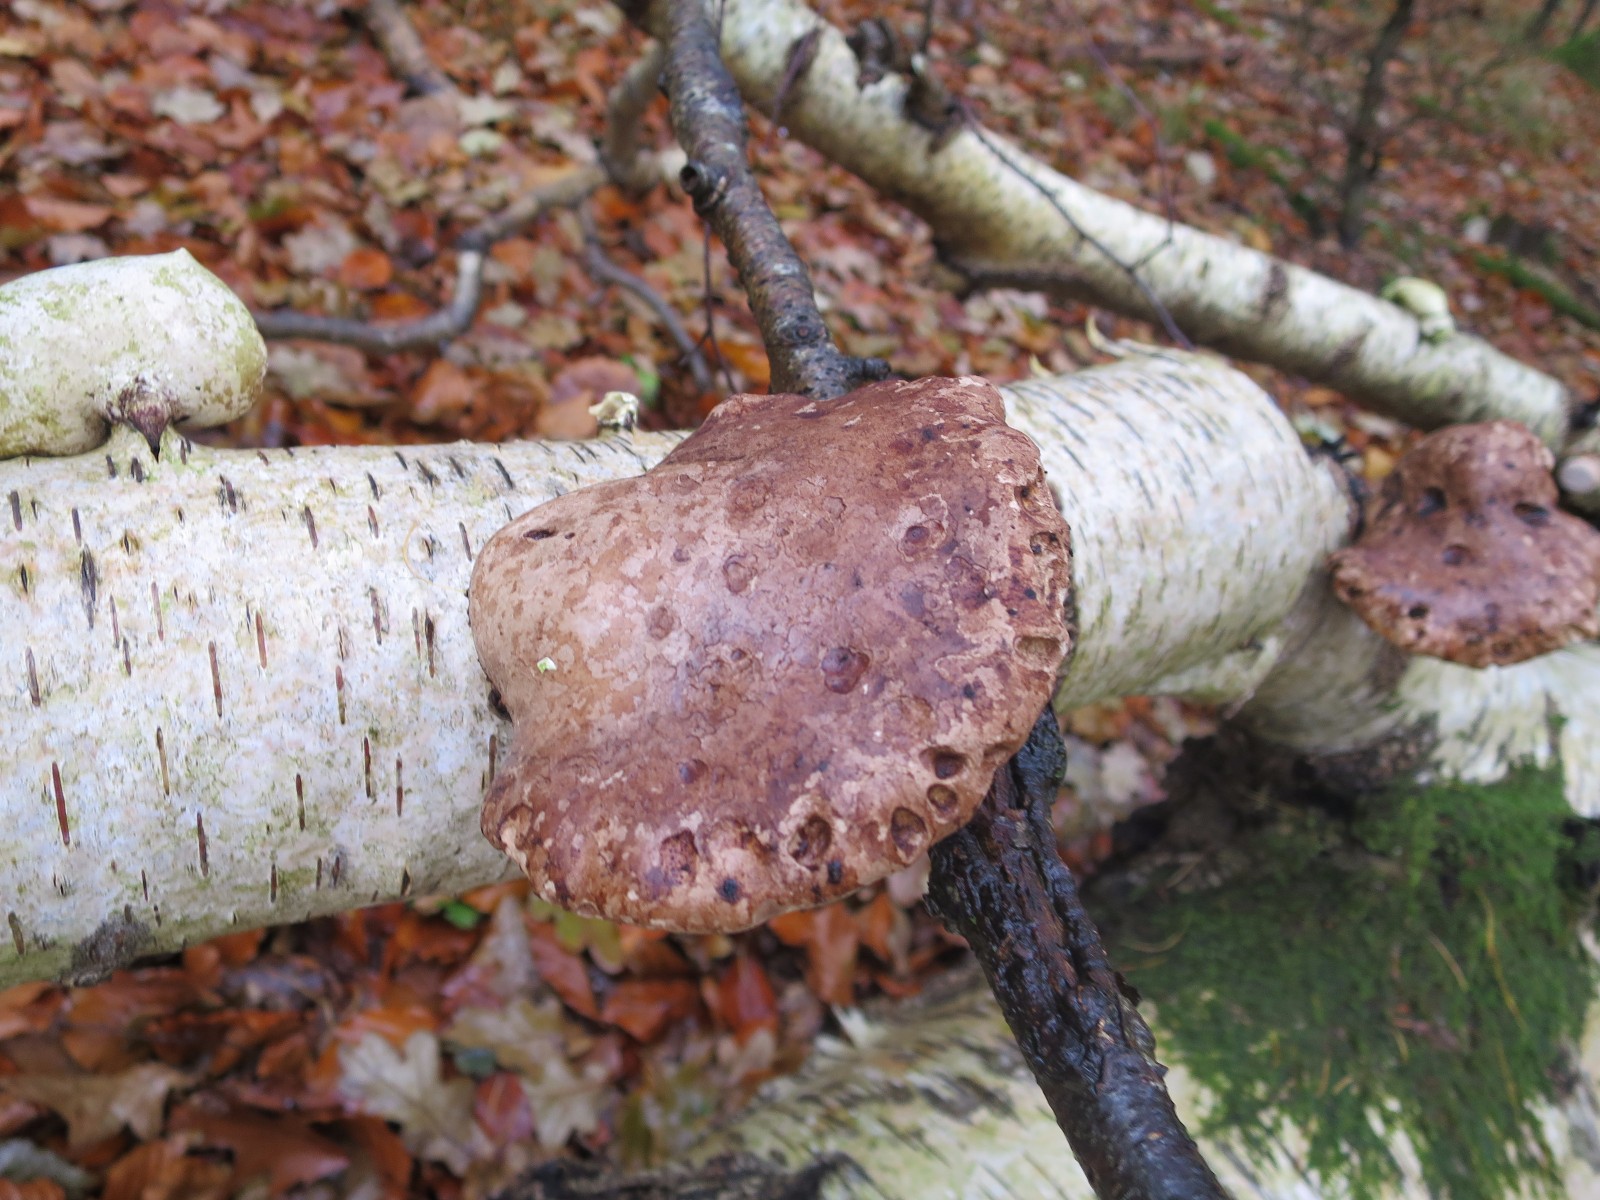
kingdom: Fungi
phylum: Basidiomycota
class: Agaricomycetes
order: Polyporales
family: Fomitopsidaceae
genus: Fomitopsis
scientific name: Fomitopsis betulina
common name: birkeporesvamp
